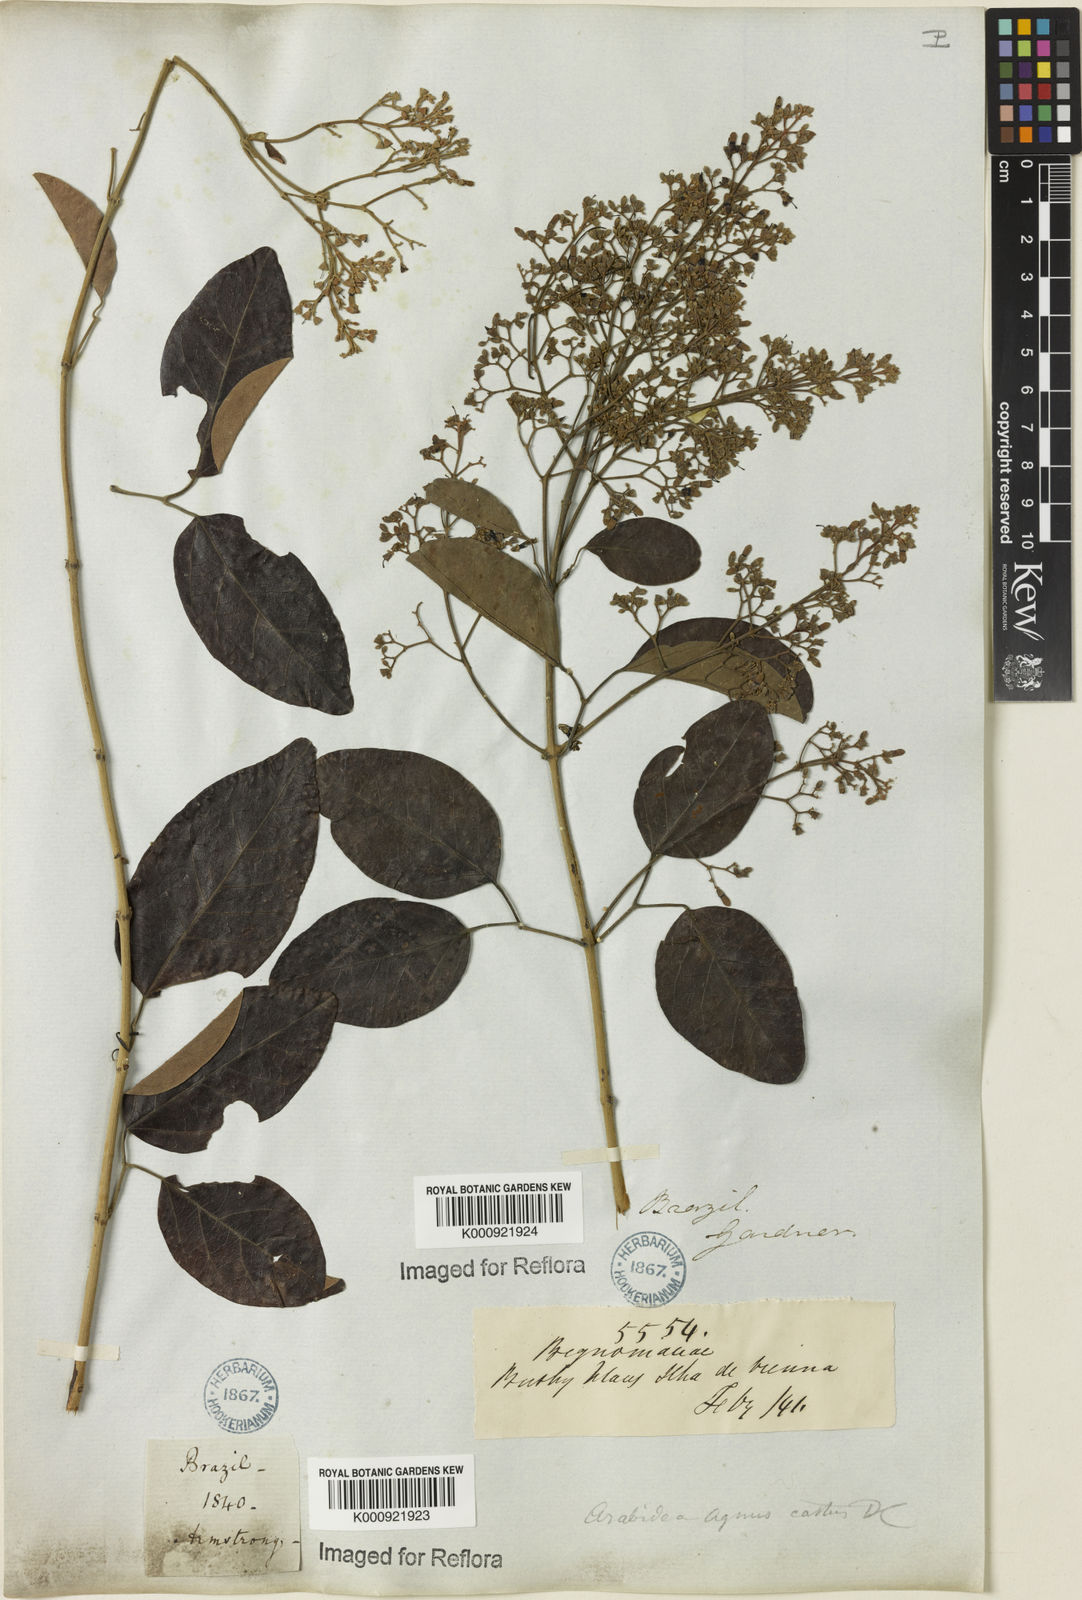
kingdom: Plantae
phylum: Tracheophyta
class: Magnoliopsida
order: Rosales
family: Rhamnaceae
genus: Arrabidaea
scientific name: Arrabidaea
